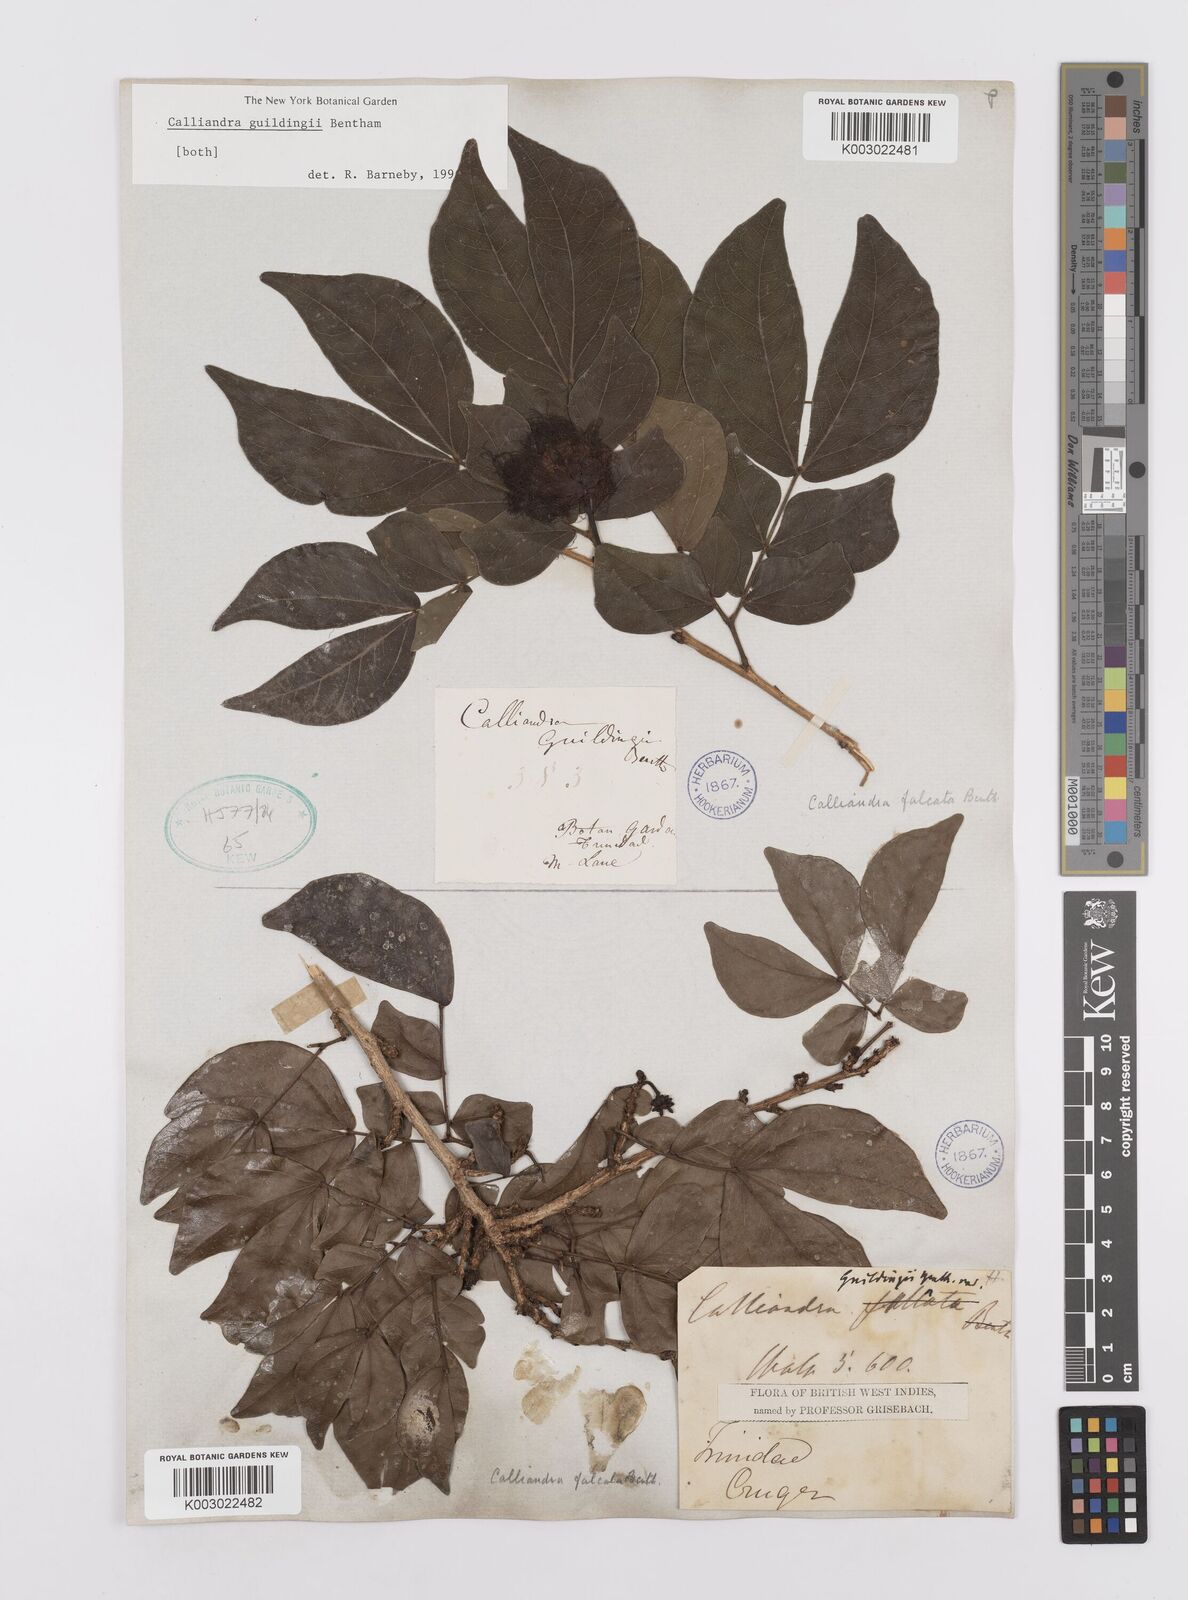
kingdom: Plantae
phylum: Tracheophyta
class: Magnoliopsida
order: Fabales
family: Fabaceae
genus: Calliandra
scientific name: Calliandra guildingii
